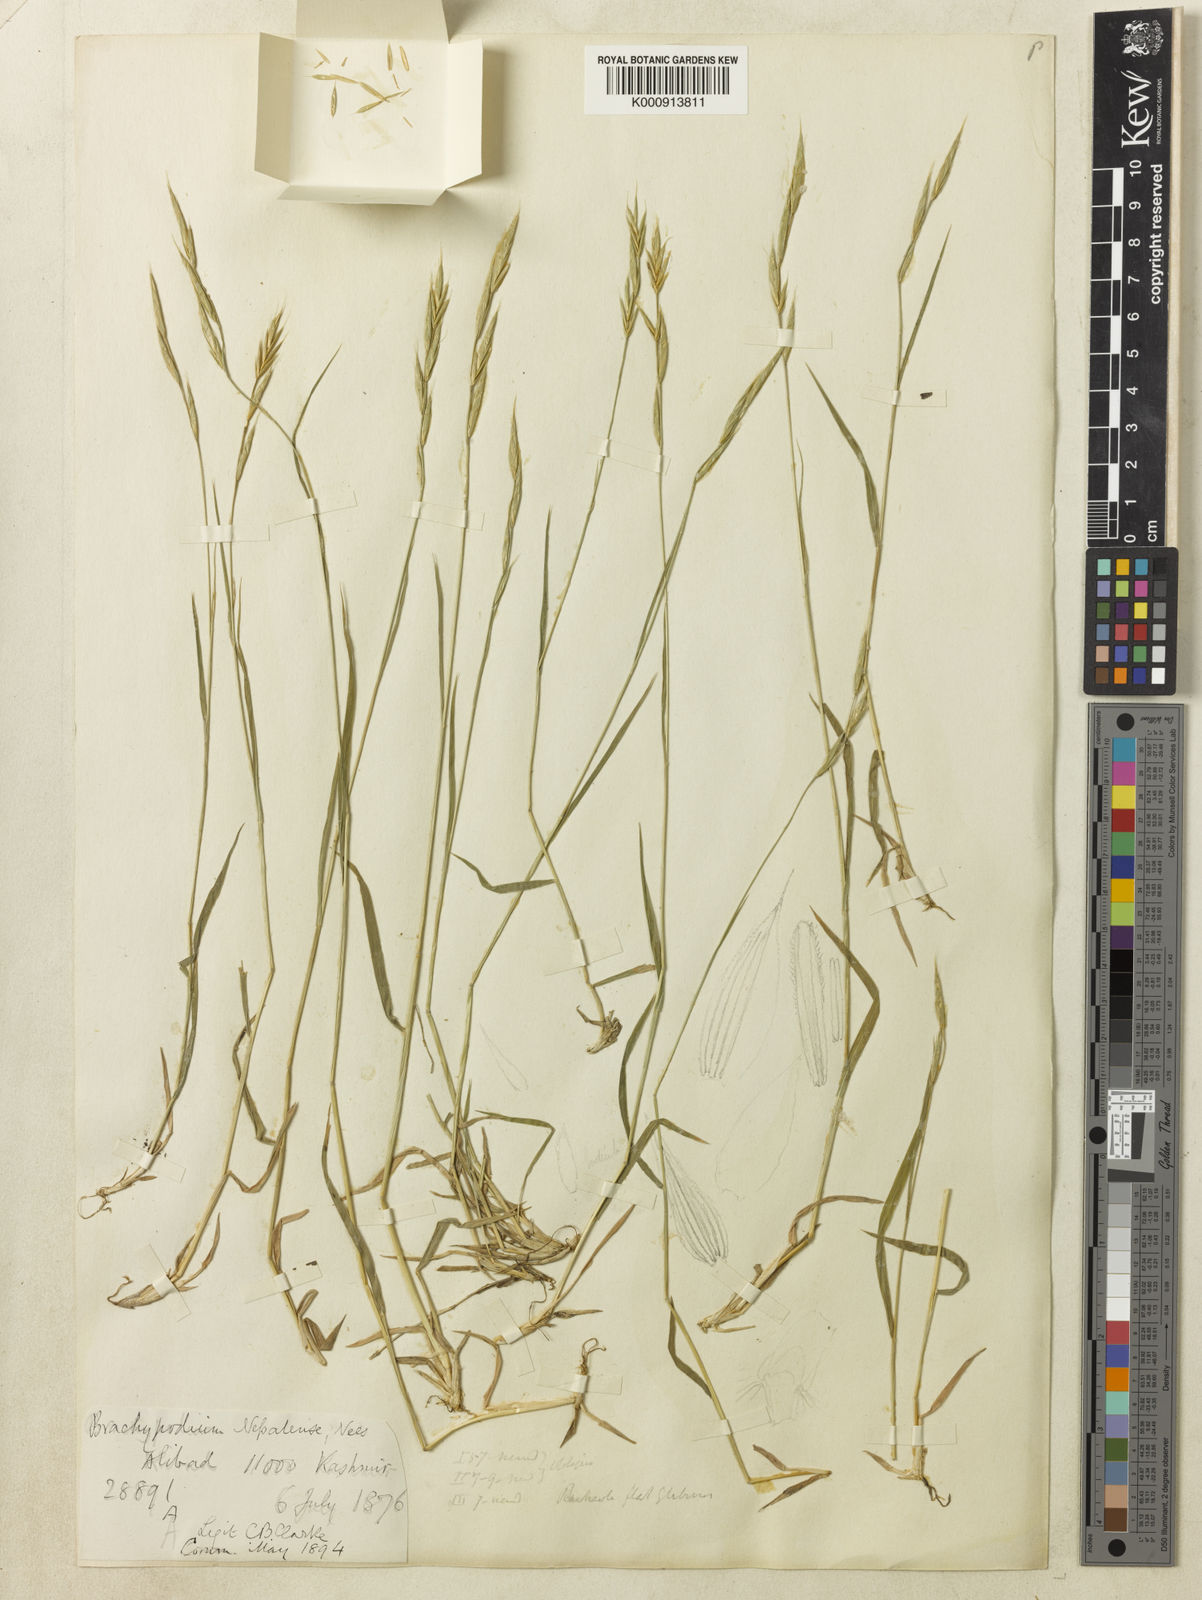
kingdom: Plantae
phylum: Tracheophyta
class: Liliopsida
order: Poales
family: Poaceae
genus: Brachypodium
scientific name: Brachypodium sylvaticum
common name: False-brome
